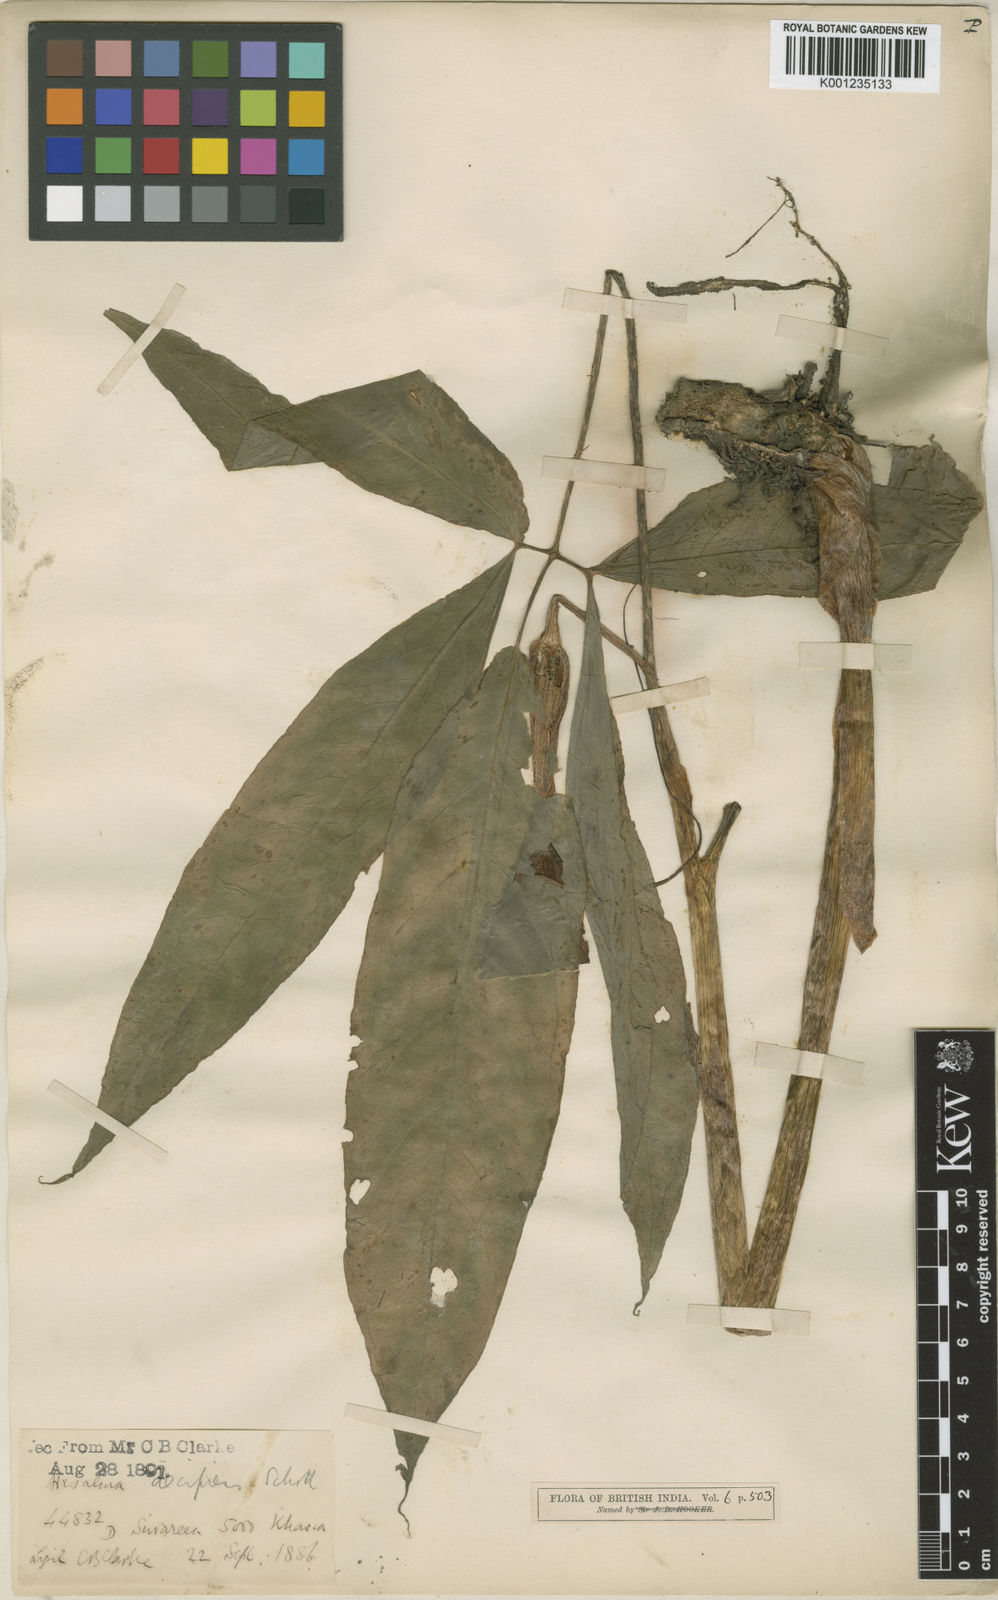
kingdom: Plantae
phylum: Tracheophyta
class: Liliopsida
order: Alismatales
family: Araceae
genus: Arisaema
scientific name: Arisaema decipiens
